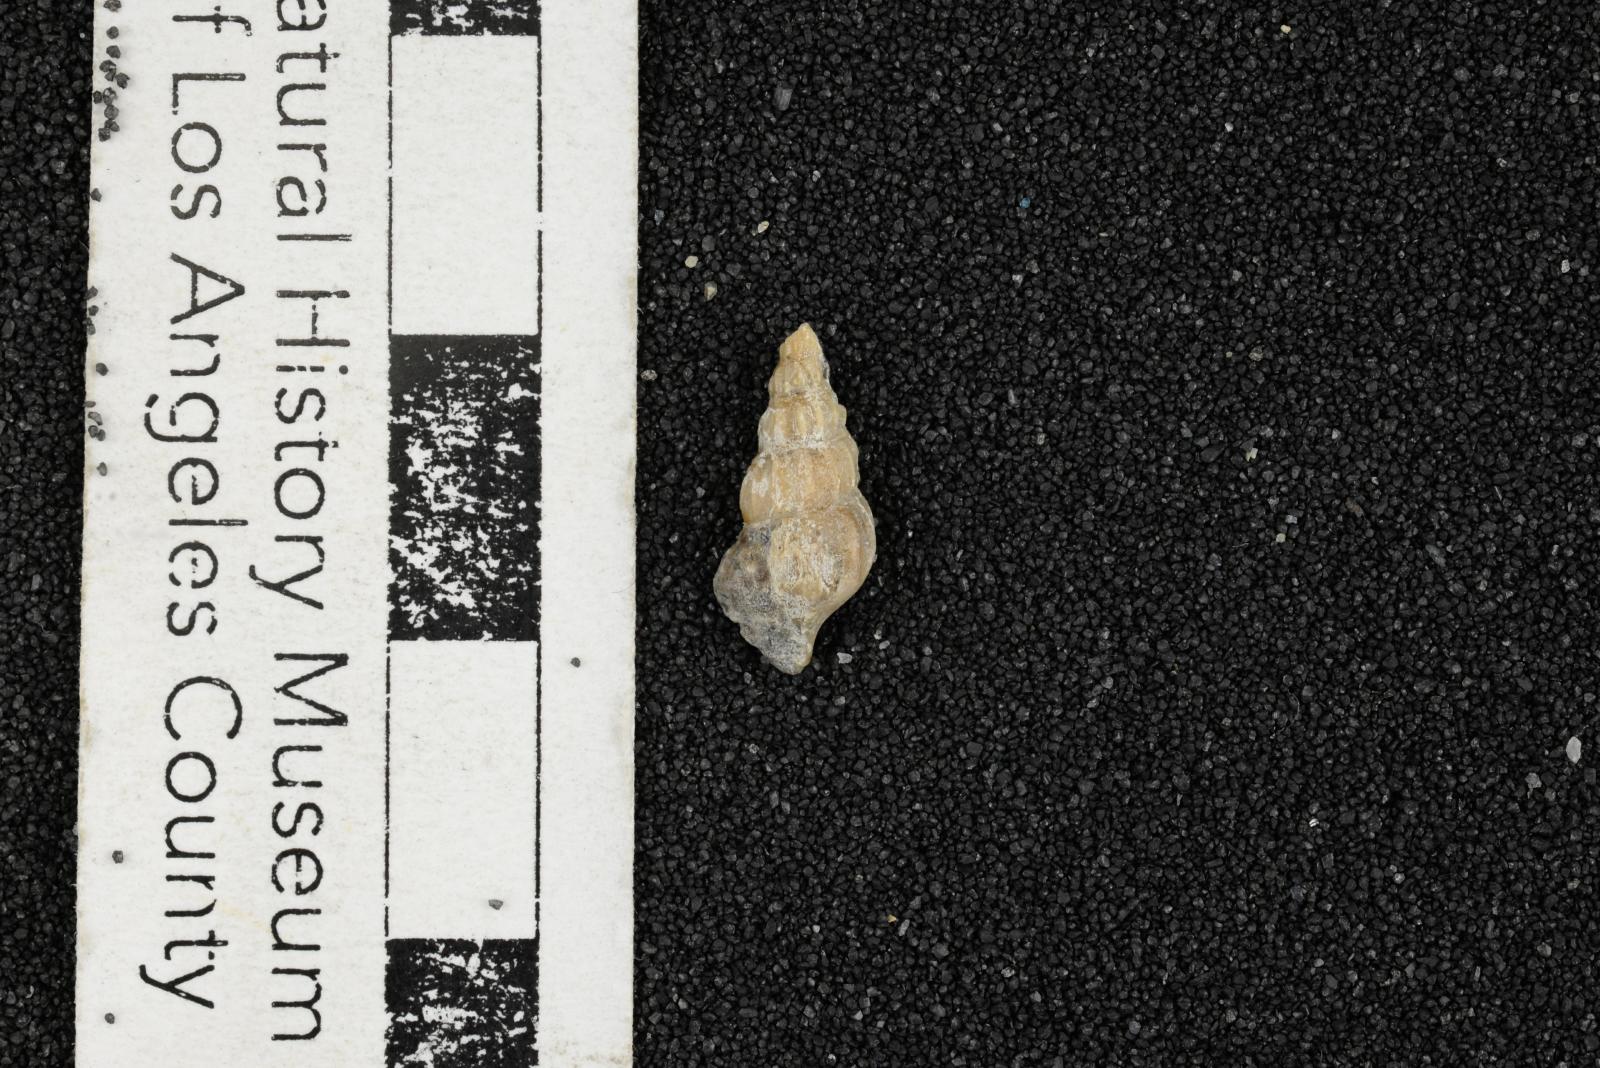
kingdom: Animalia
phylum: Mollusca
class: Gastropoda
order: Littorinimorpha
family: Aporrhaidae
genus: Alarimella
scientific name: Alarimella anae
